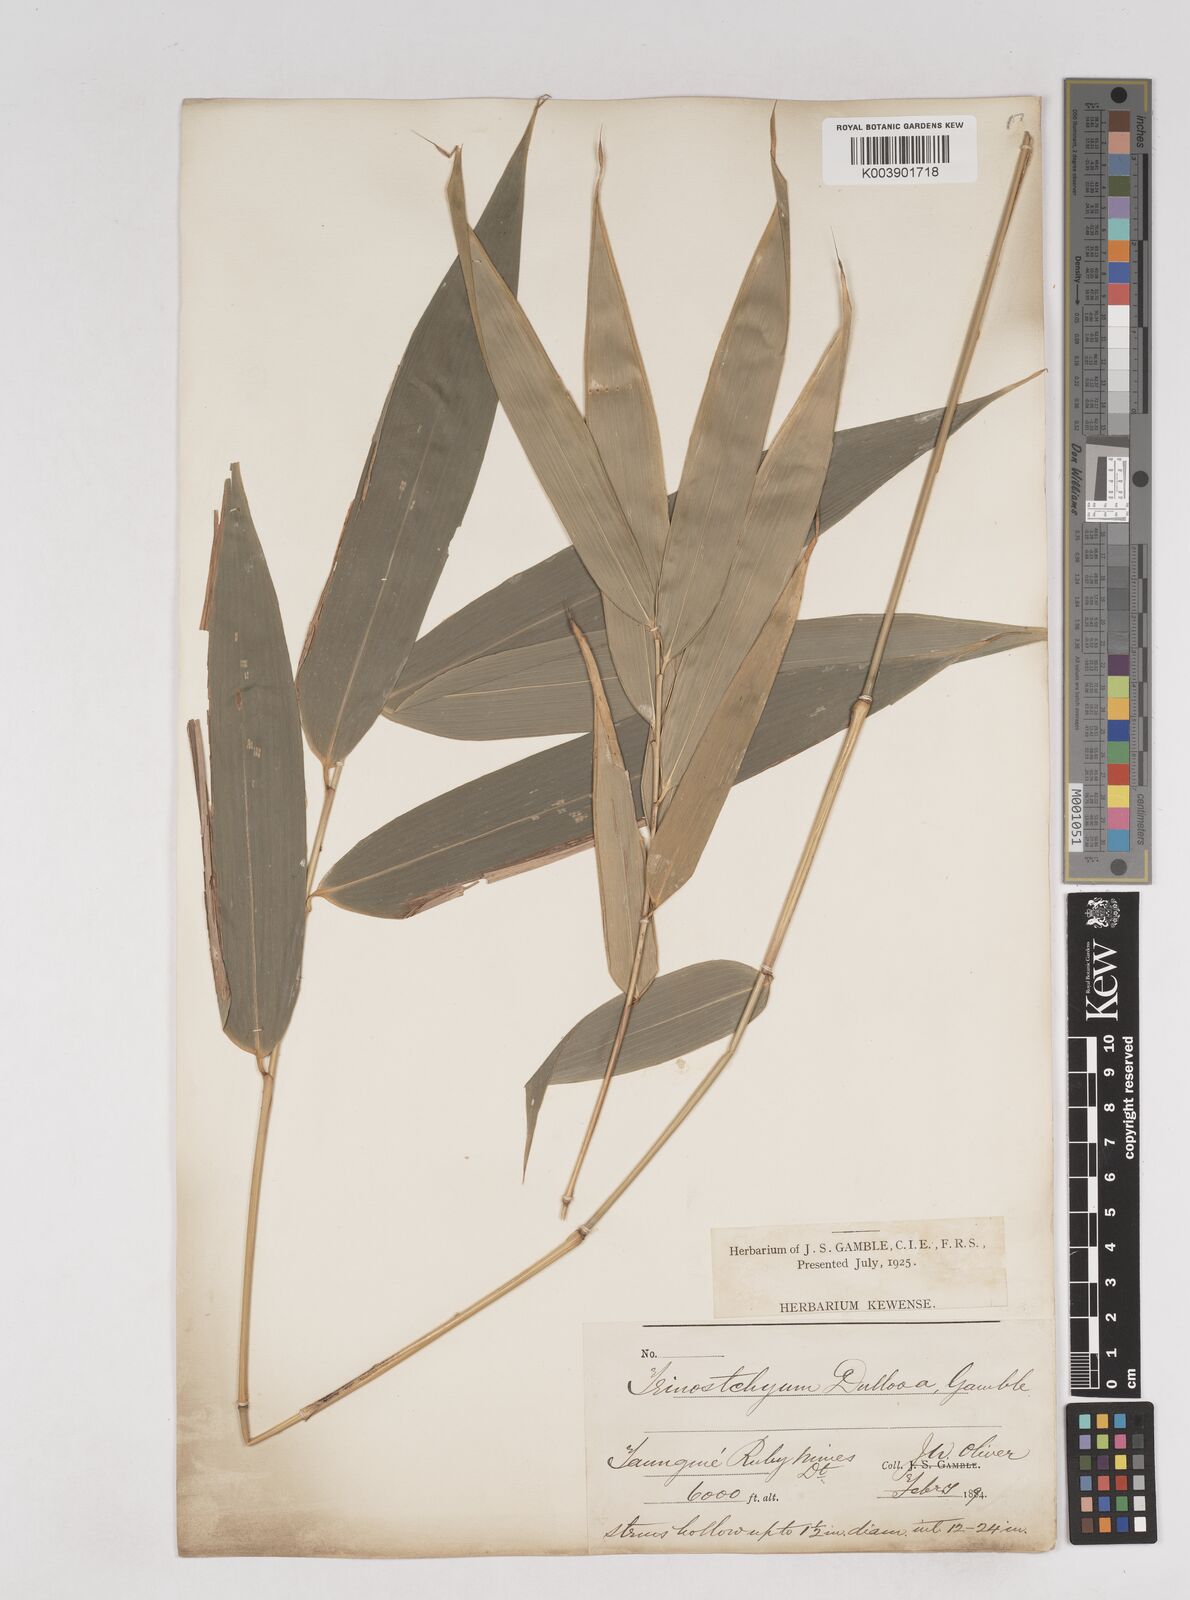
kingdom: Plantae
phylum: Tracheophyta
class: Liliopsida
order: Poales
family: Poaceae
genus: Schizostachyum
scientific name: Schizostachyum dullooa
